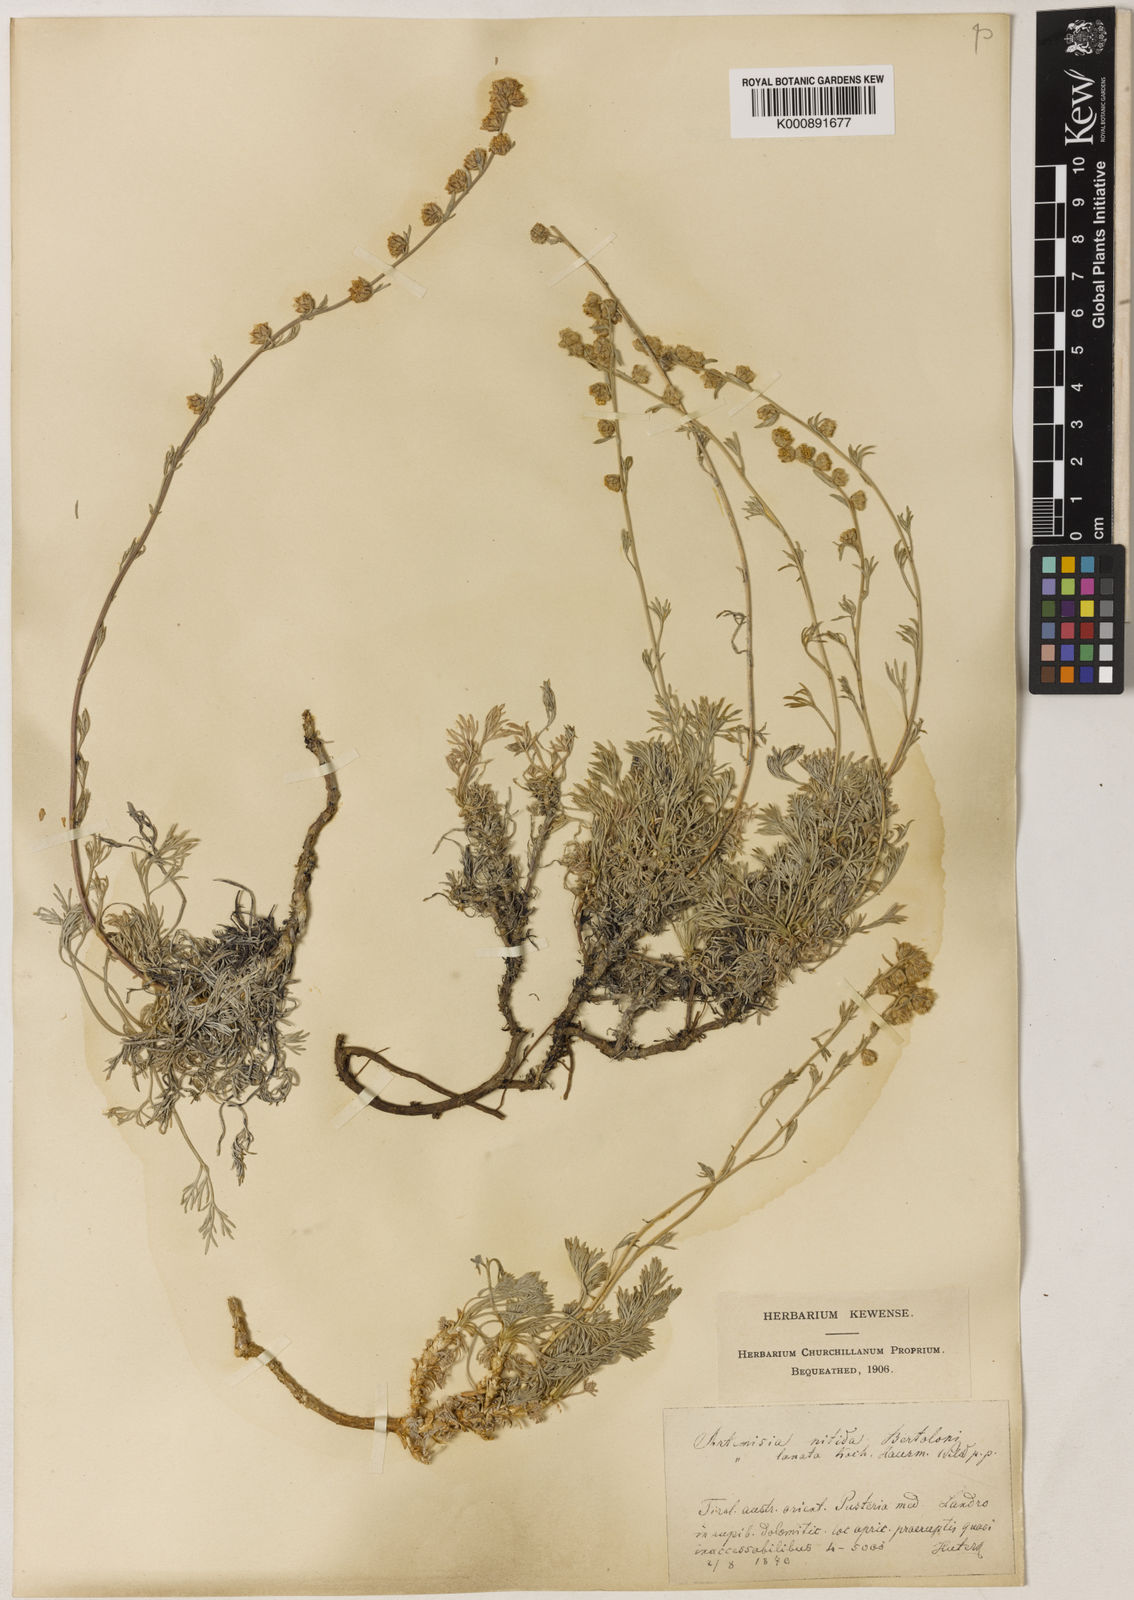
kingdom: Plantae
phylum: Tracheophyta
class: Magnoliopsida
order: Asterales
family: Asteraceae
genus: Artemisia
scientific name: Artemisia nitida
